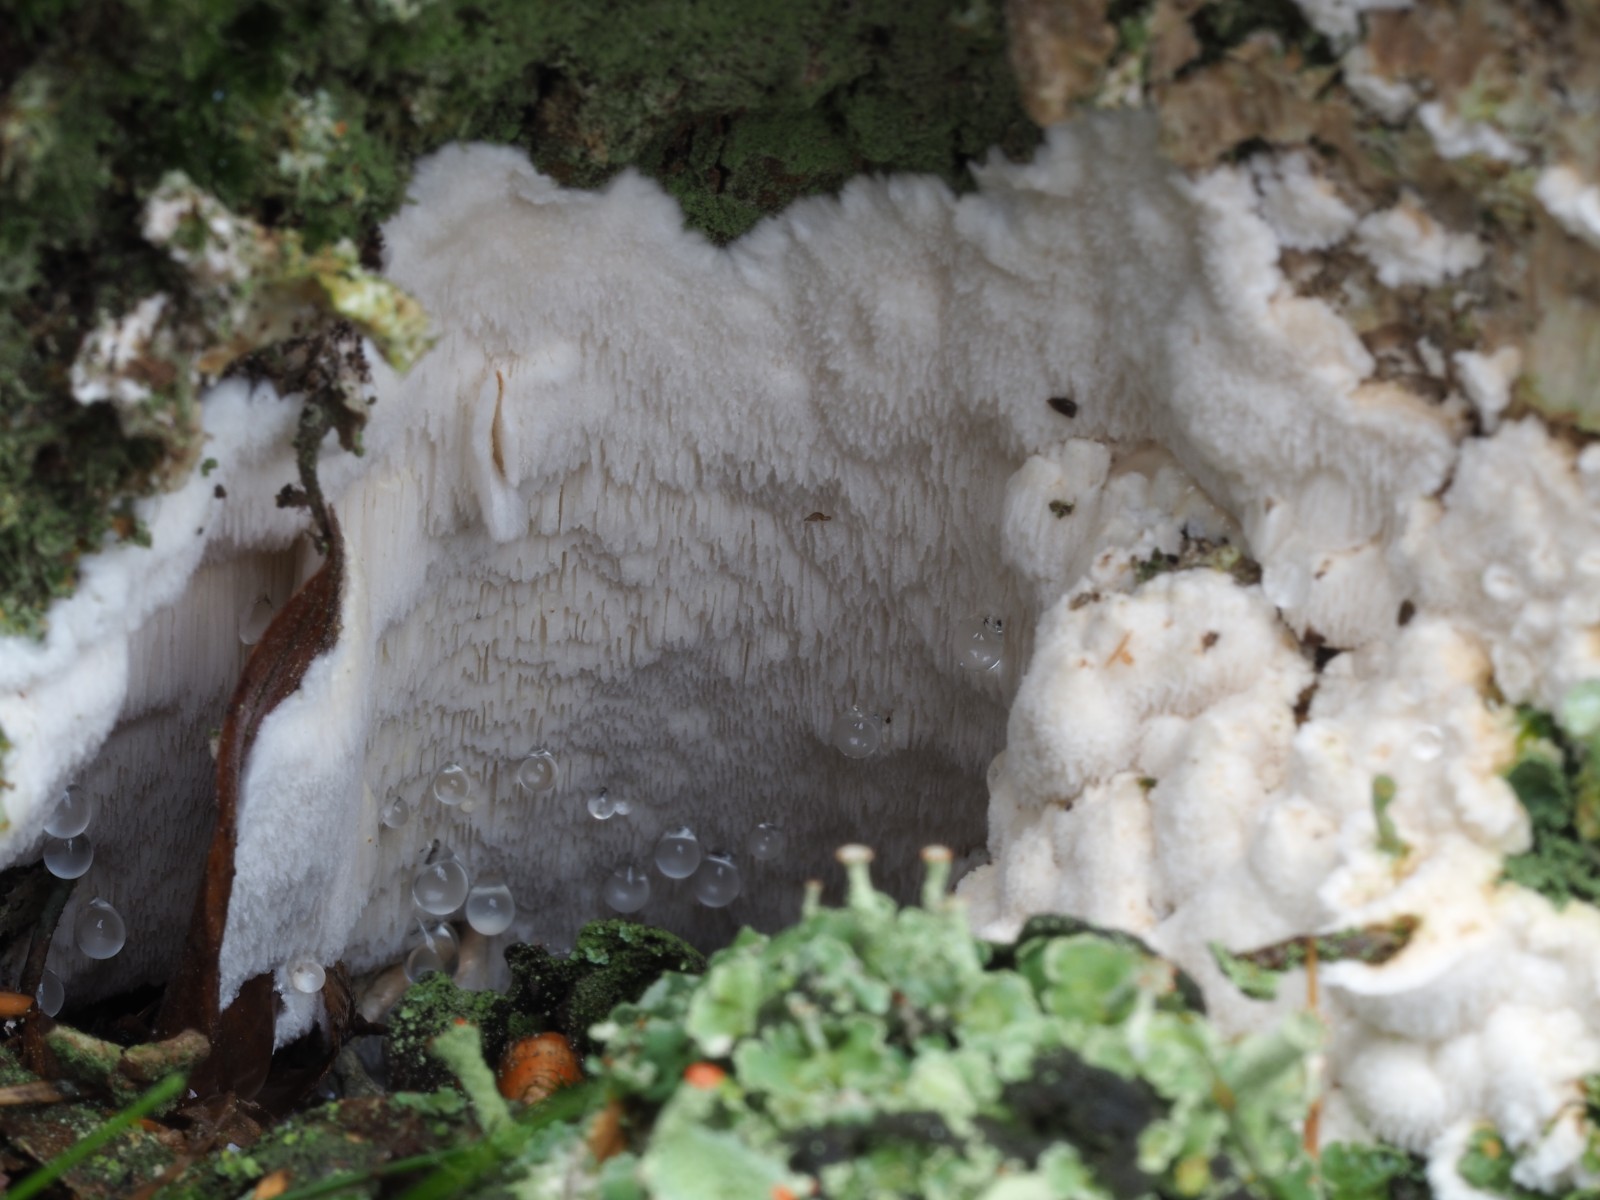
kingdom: Fungi
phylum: Basidiomycota
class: Agaricomycetes
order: Polyporales
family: Dacryobolaceae
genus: Postia
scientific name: Postia sericeomollis
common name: flad kødporesvamp
